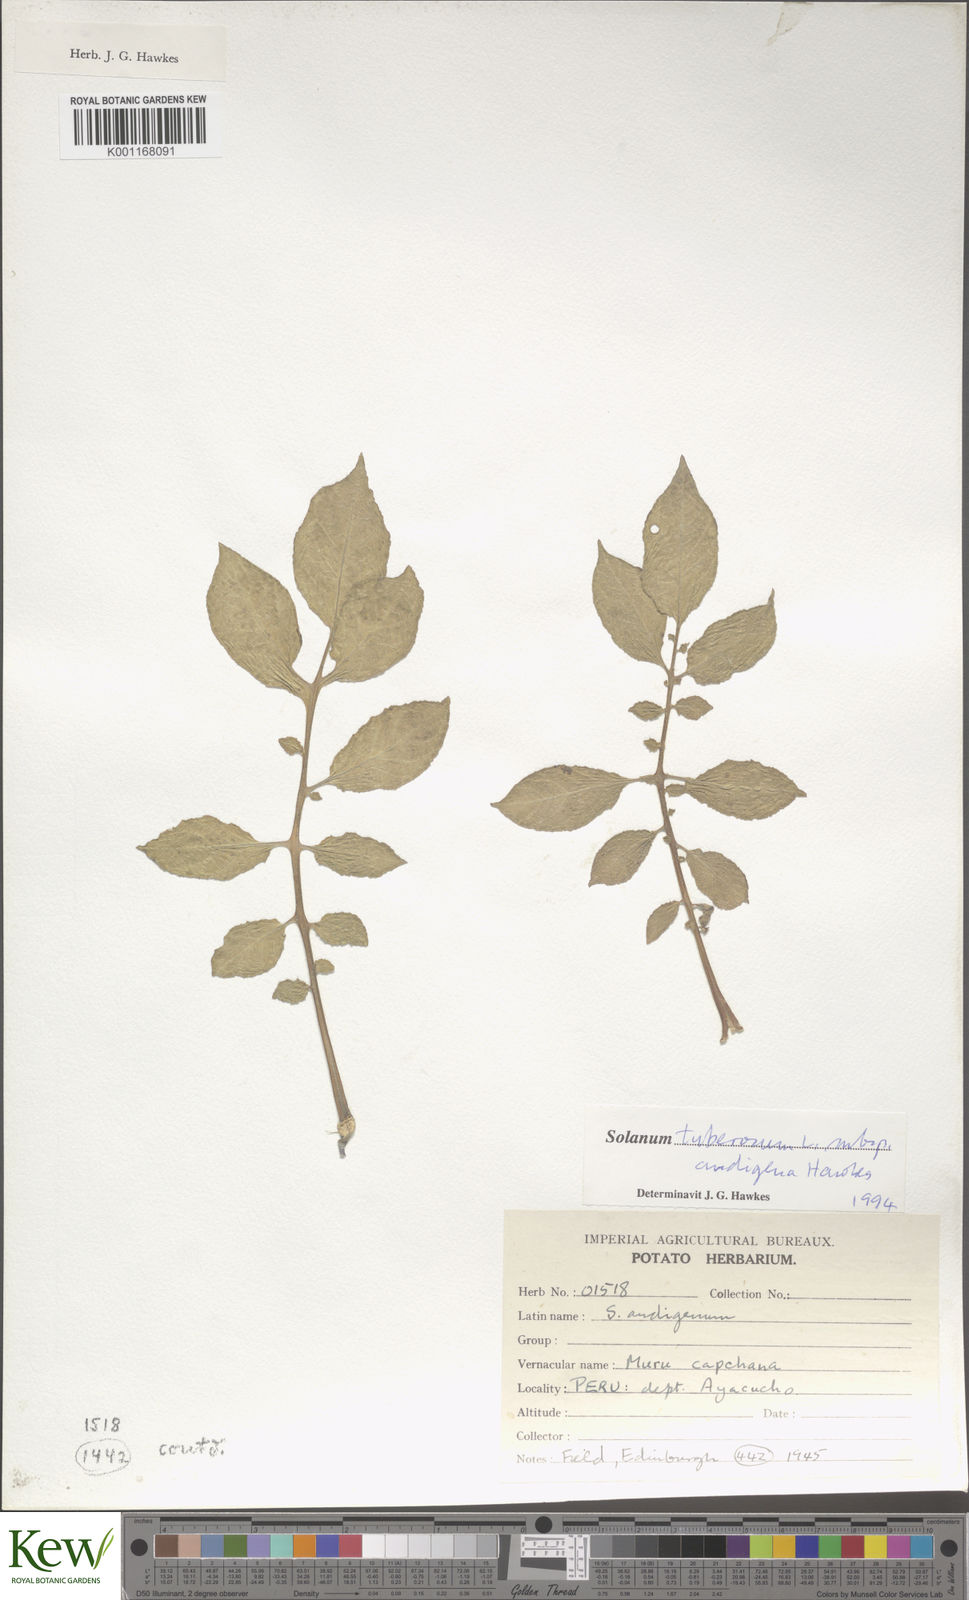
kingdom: Plantae
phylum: Tracheophyta
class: Magnoliopsida
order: Solanales
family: Solanaceae
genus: Solanum
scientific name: Solanum tuberosum
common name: Potato
